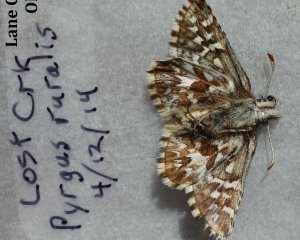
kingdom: Animalia
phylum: Arthropoda
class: Insecta
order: Lepidoptera
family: Hesperiidae
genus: Pyrgus
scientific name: Pyrgus ruralis
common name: Two-banded Checkered-Skipper
